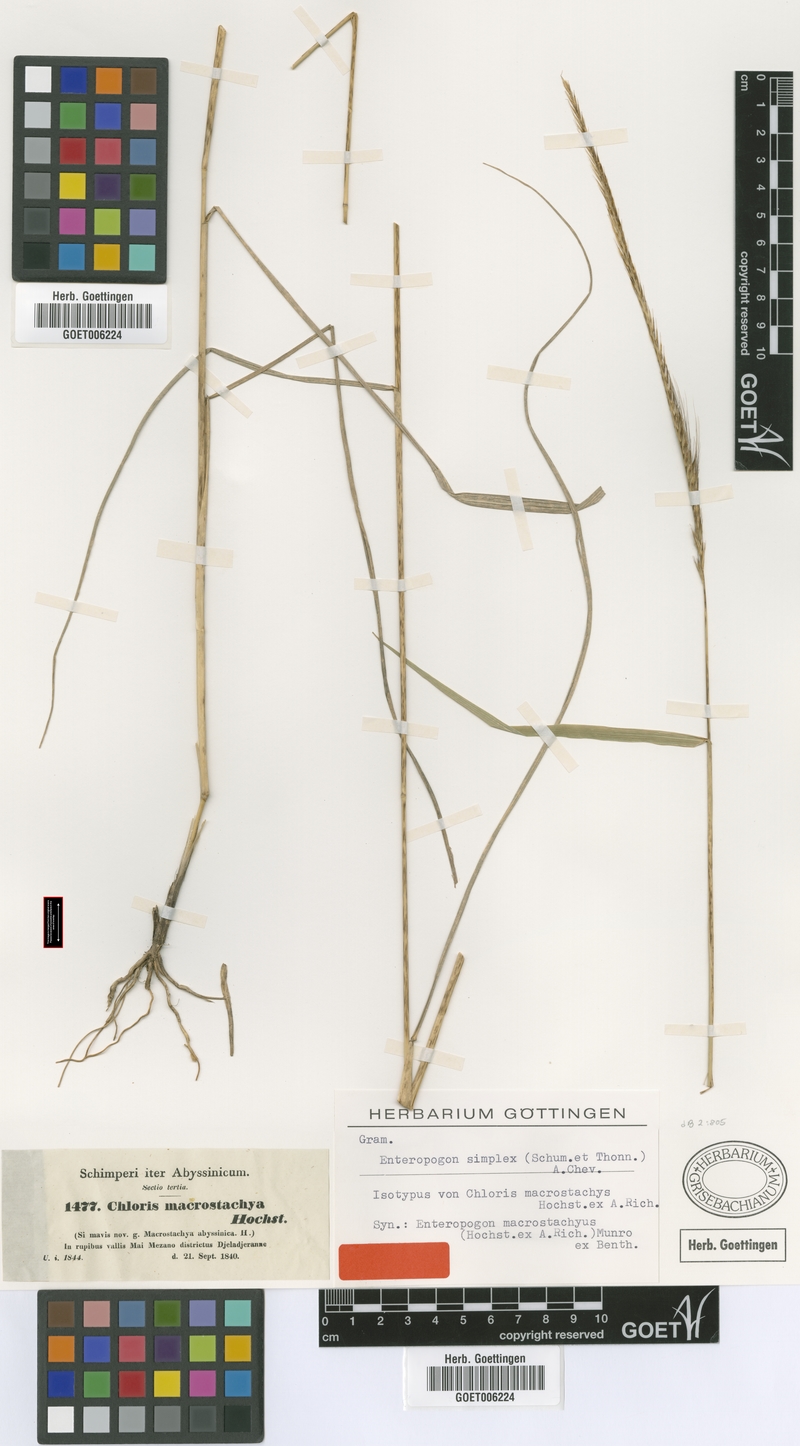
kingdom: Plantae
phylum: Tracheophyta
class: Liliopsida
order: Poales
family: Poaceae
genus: Enteropogon
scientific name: Enteropogon monostachyos
